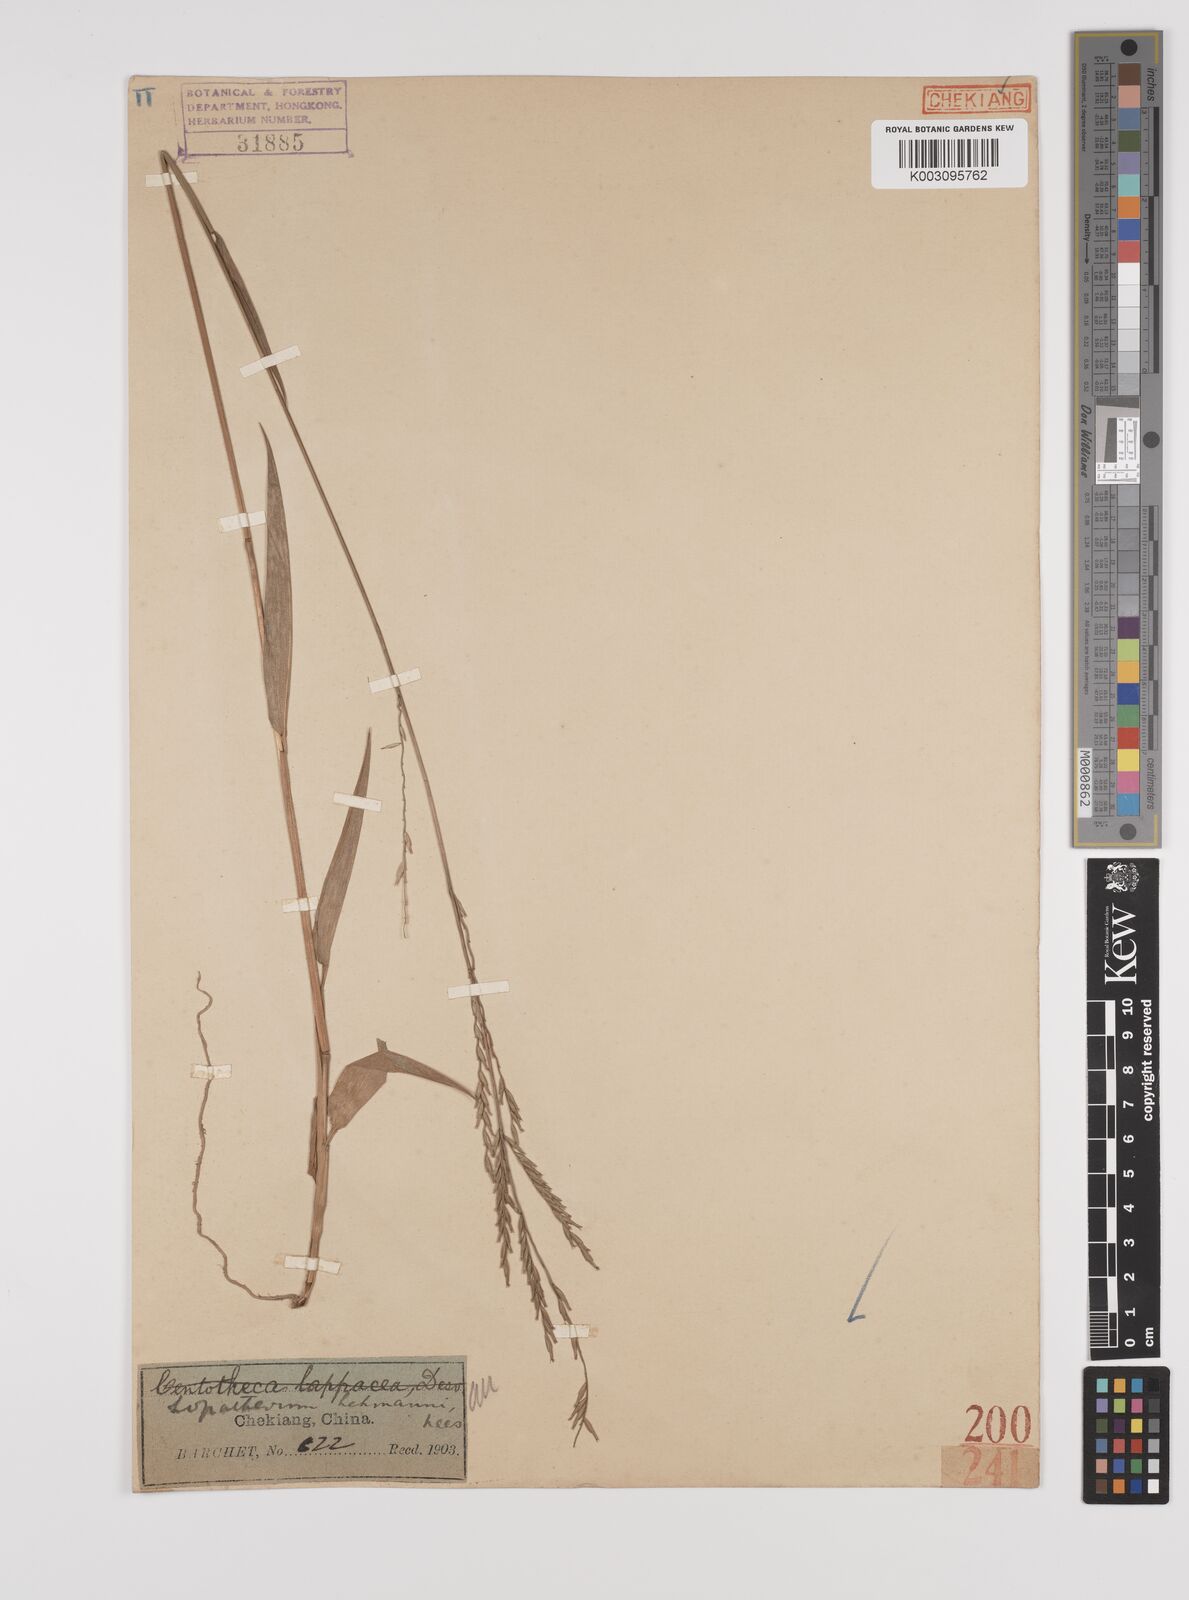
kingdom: Plantae
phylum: Tracheophyta
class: Liliopsida
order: Poales
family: Poaceae
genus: Lophatherum
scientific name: Lophatherum gracile
